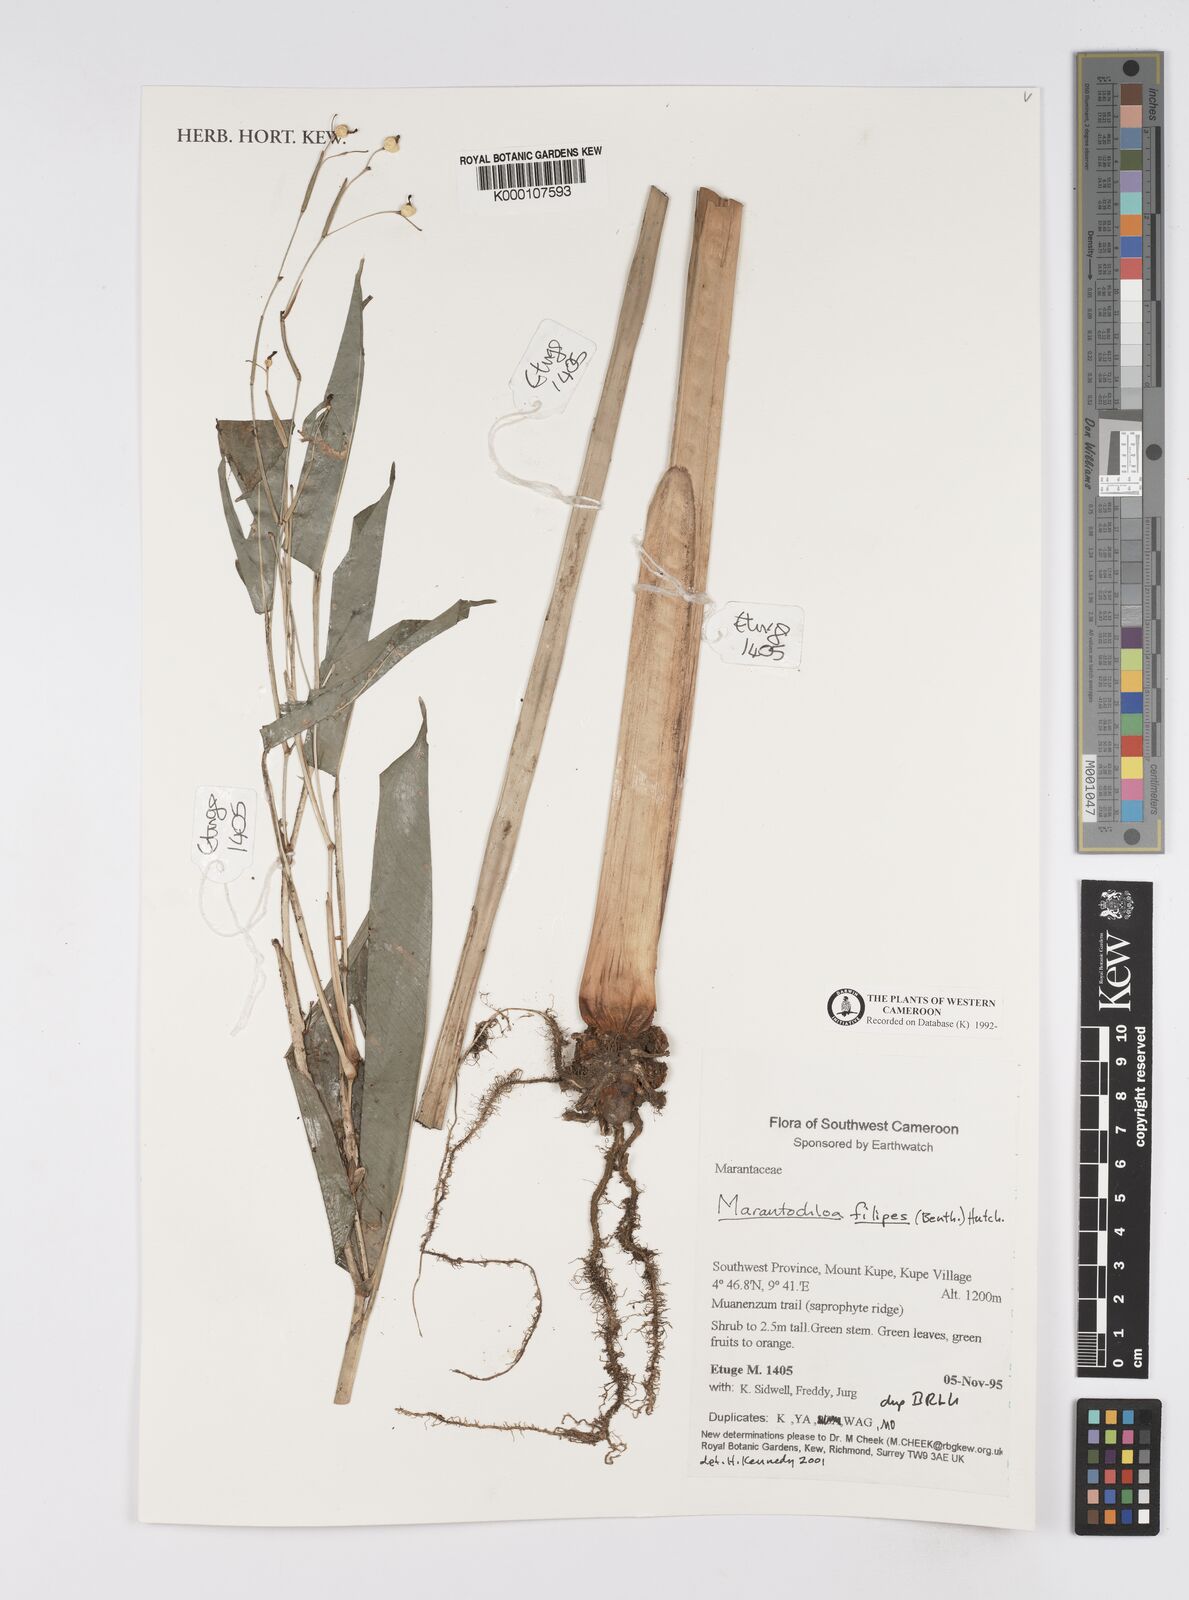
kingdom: Plantae
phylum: Tracheophyta
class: Liliopsida
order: Zingiberales
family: Marantaceae
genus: Marantochloa
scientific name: Marantochloa filipes
